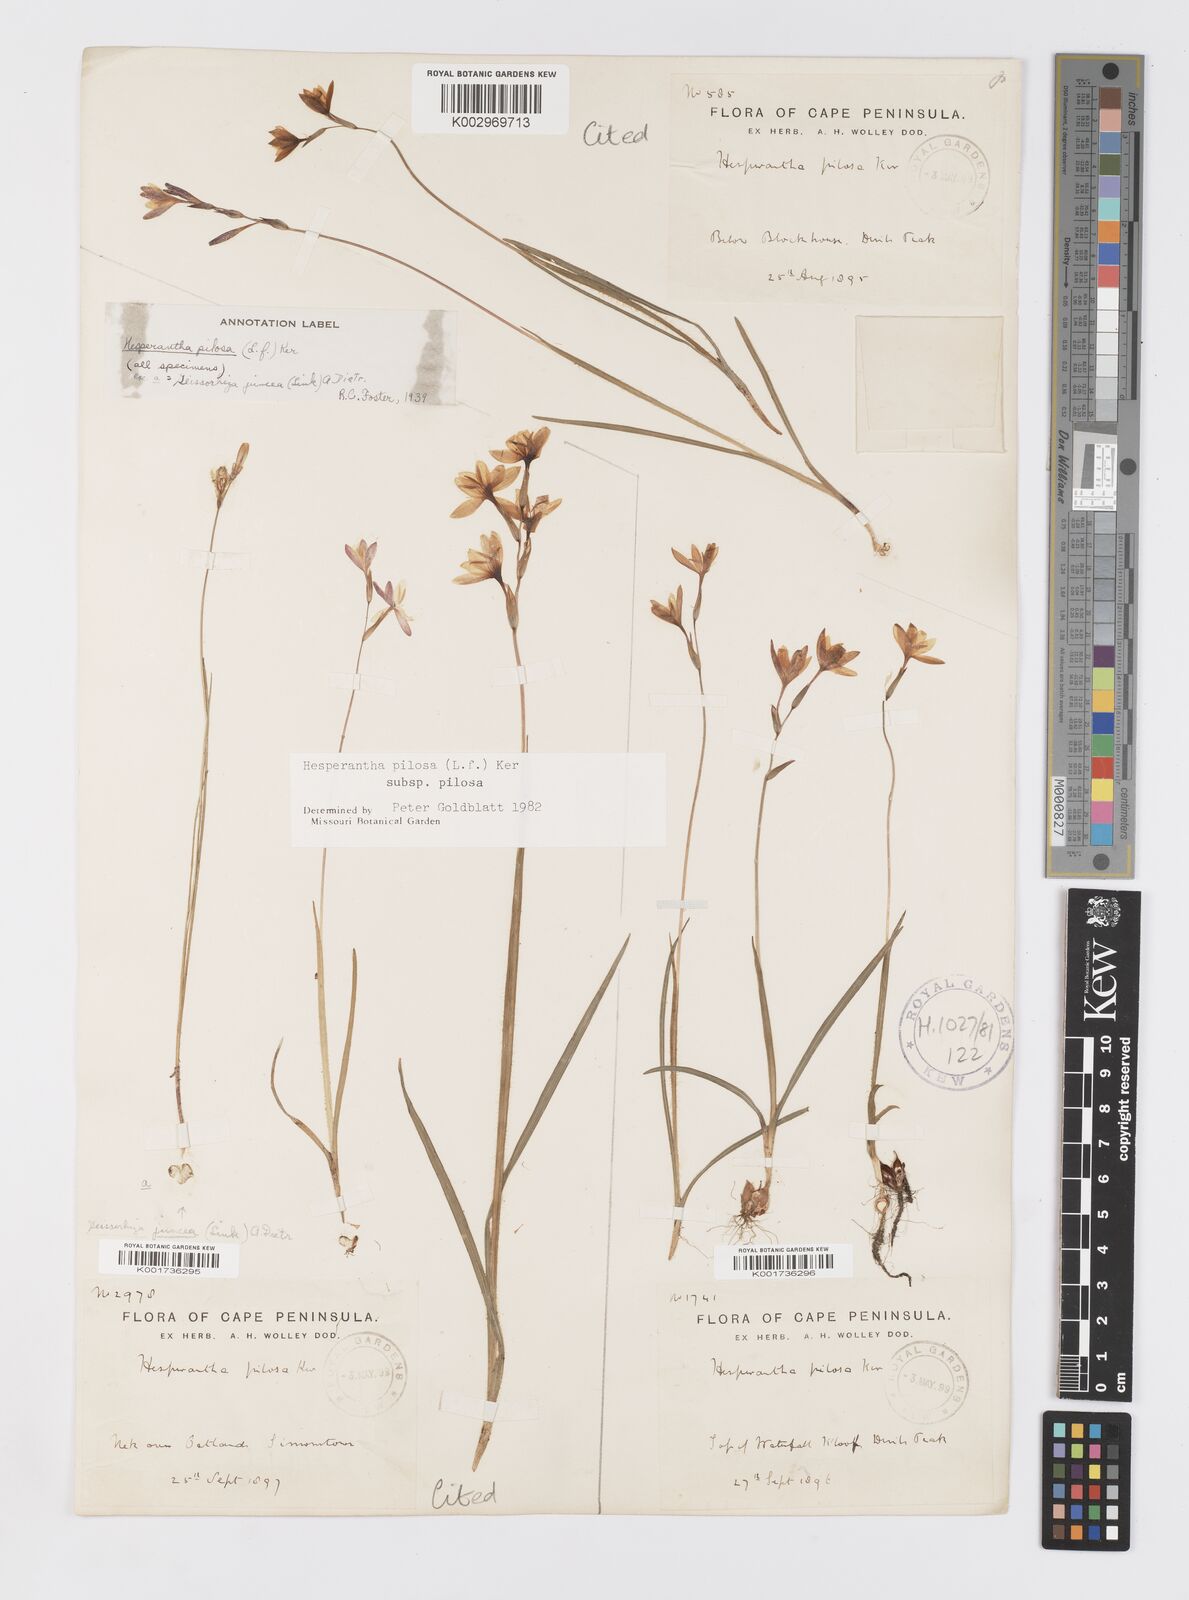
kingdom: Plantae
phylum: Tracheophyta
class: Liliopsida
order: Asparagales
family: Iridaceae
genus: Hesperantha
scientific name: Hesperantha pilosa
